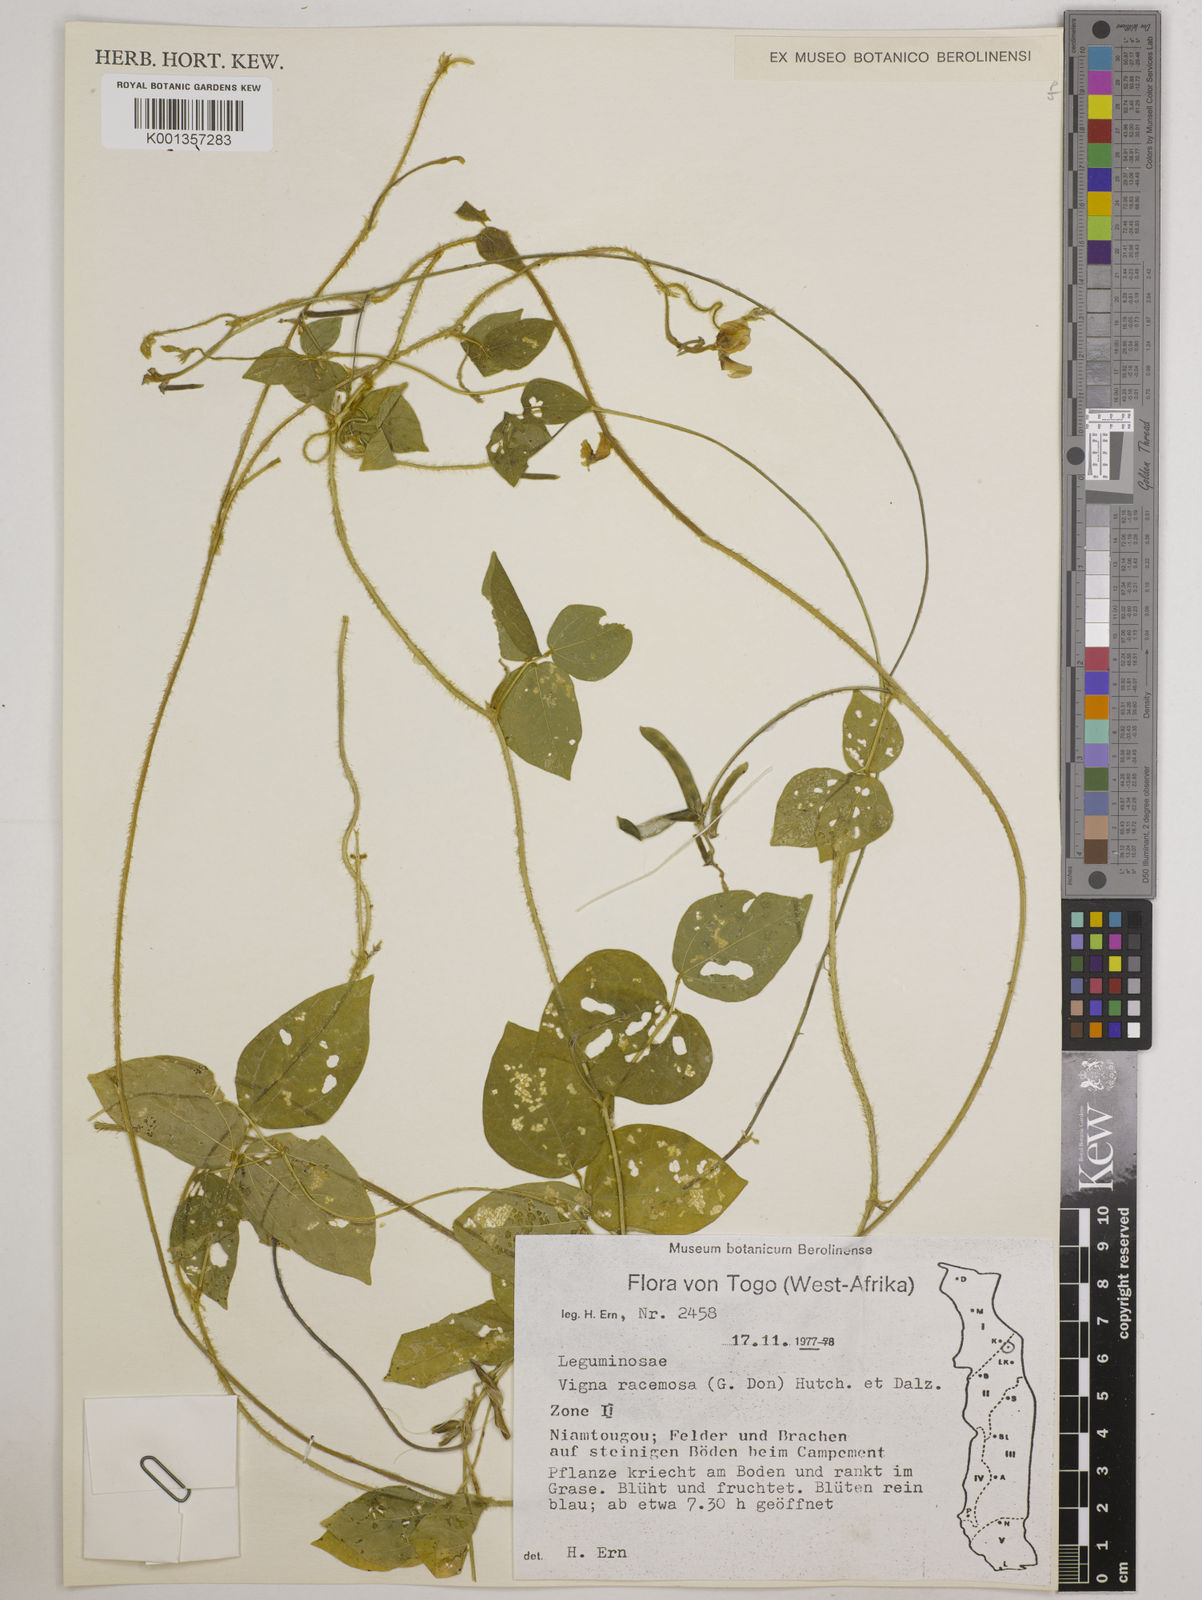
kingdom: Plantae
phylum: Tracheophyta
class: Magnoliopsida
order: Fabales
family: Fabaceae
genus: Vigna
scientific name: Vigna racemosa
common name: Beans not eaten
